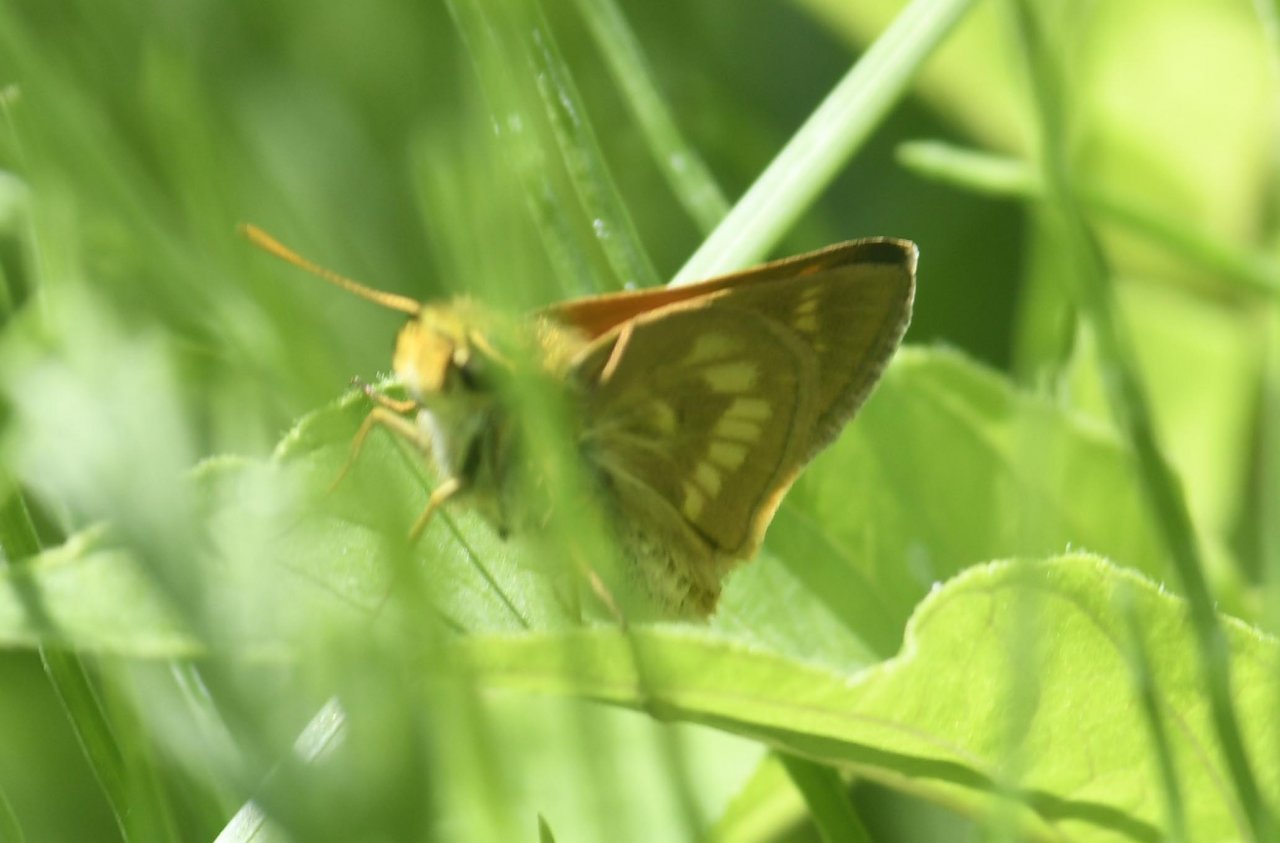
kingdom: Animalia
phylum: Arthropoda
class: Insecta
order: Lepidoptera
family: Hesperiidae
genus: Polites
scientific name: Polites
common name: Long Dash Skipper
